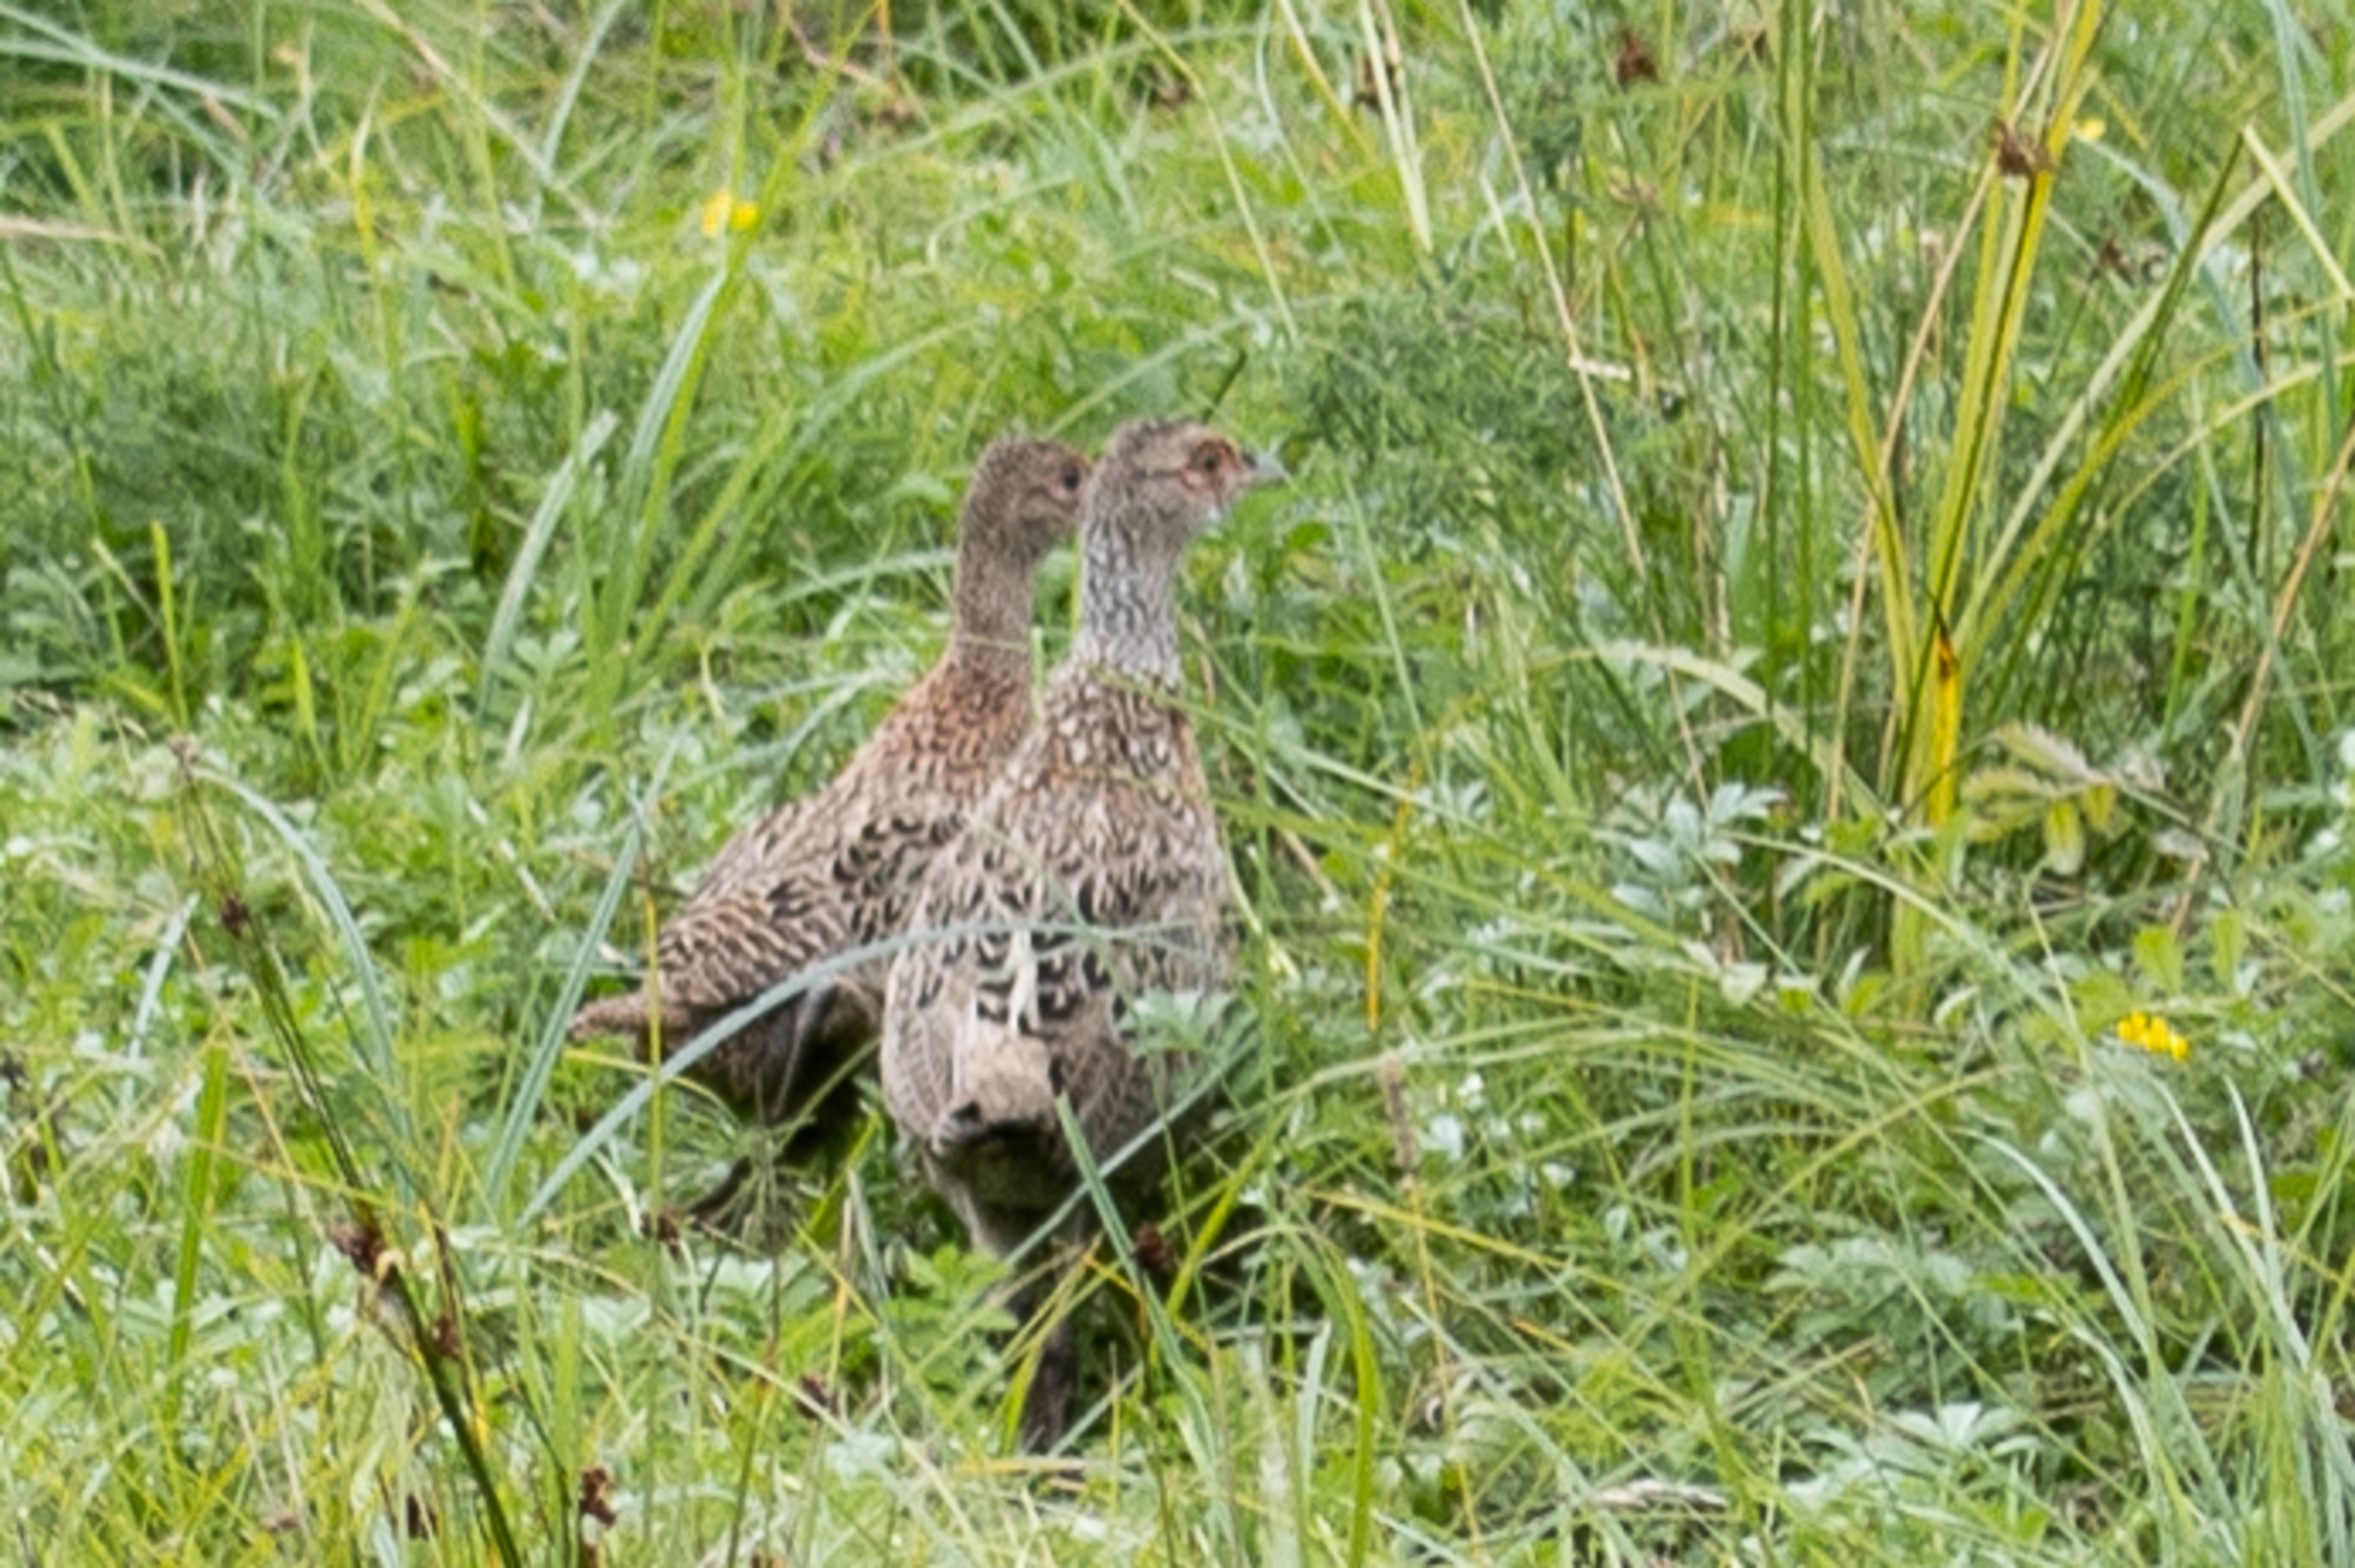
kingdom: Animalia
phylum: Chordata
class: Aves
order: Galliformes
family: Phasianidae
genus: Phasianus
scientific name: Phasianus colchicus
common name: Fasan
